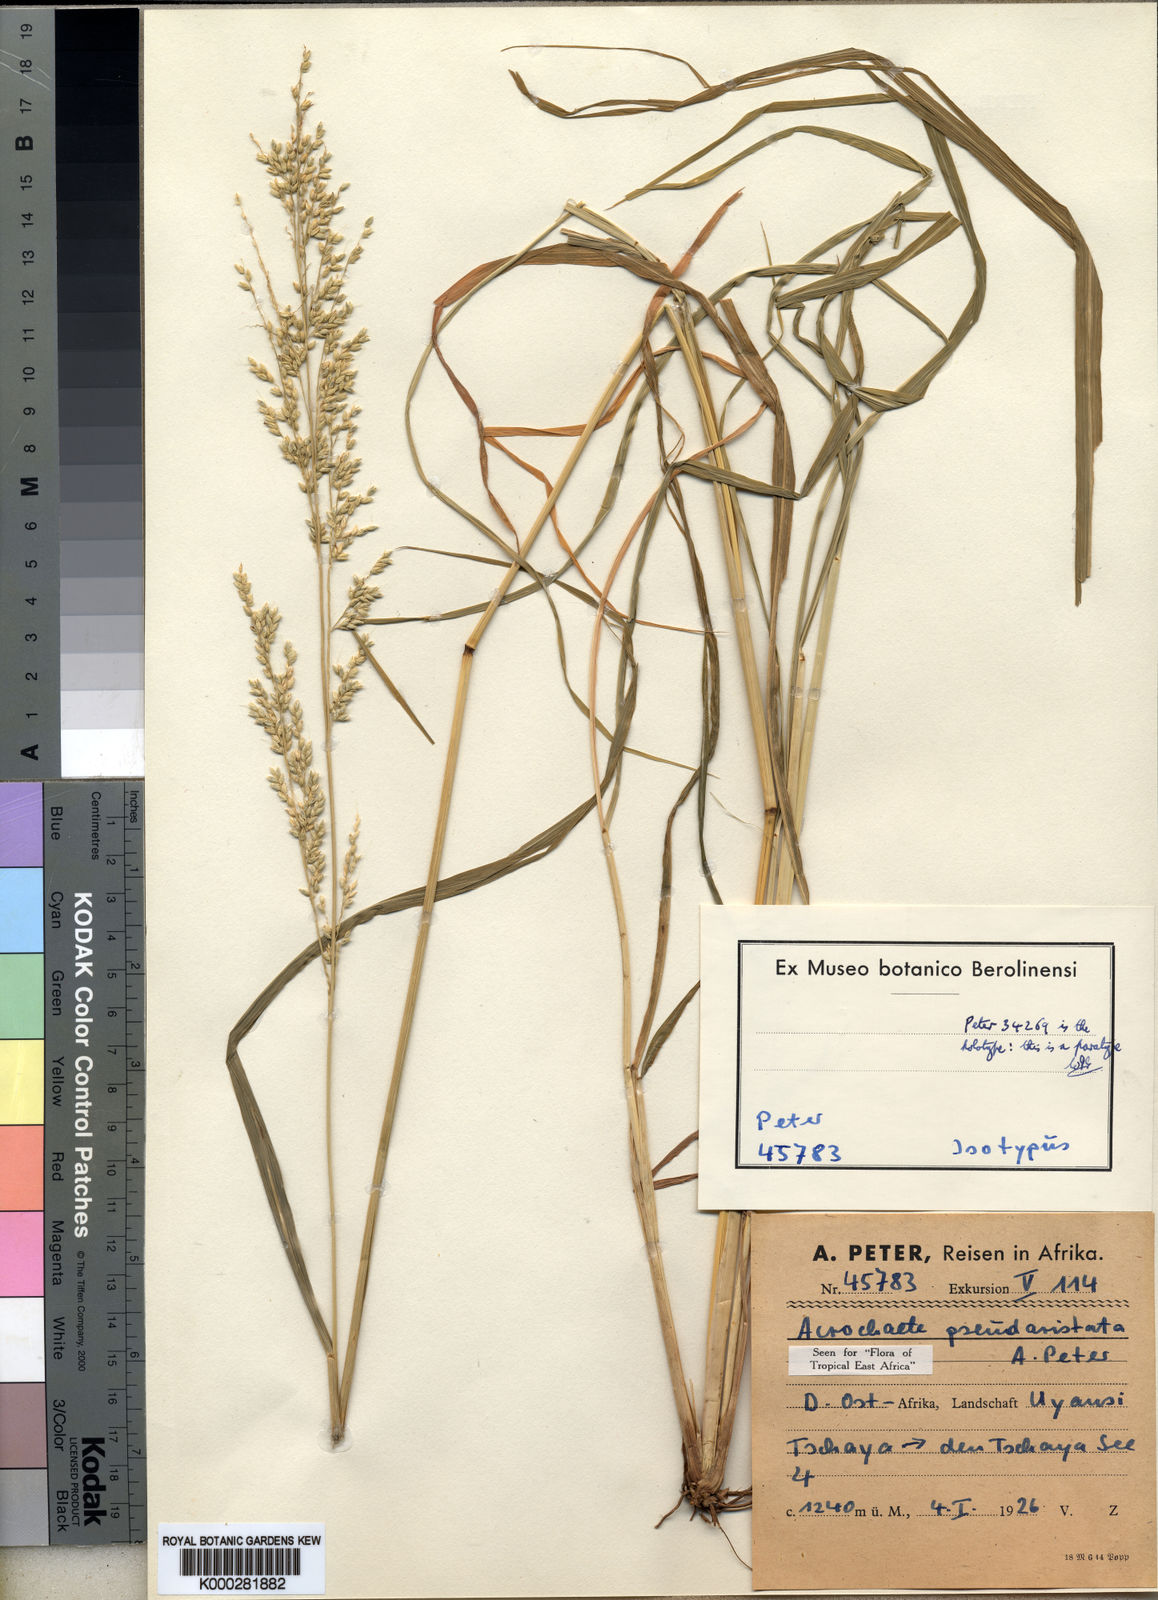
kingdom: Plantae
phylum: Tracheophyta
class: Liliopsida
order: Poales
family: Poaceae
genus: Setaria
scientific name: Setaria pseudaristata
